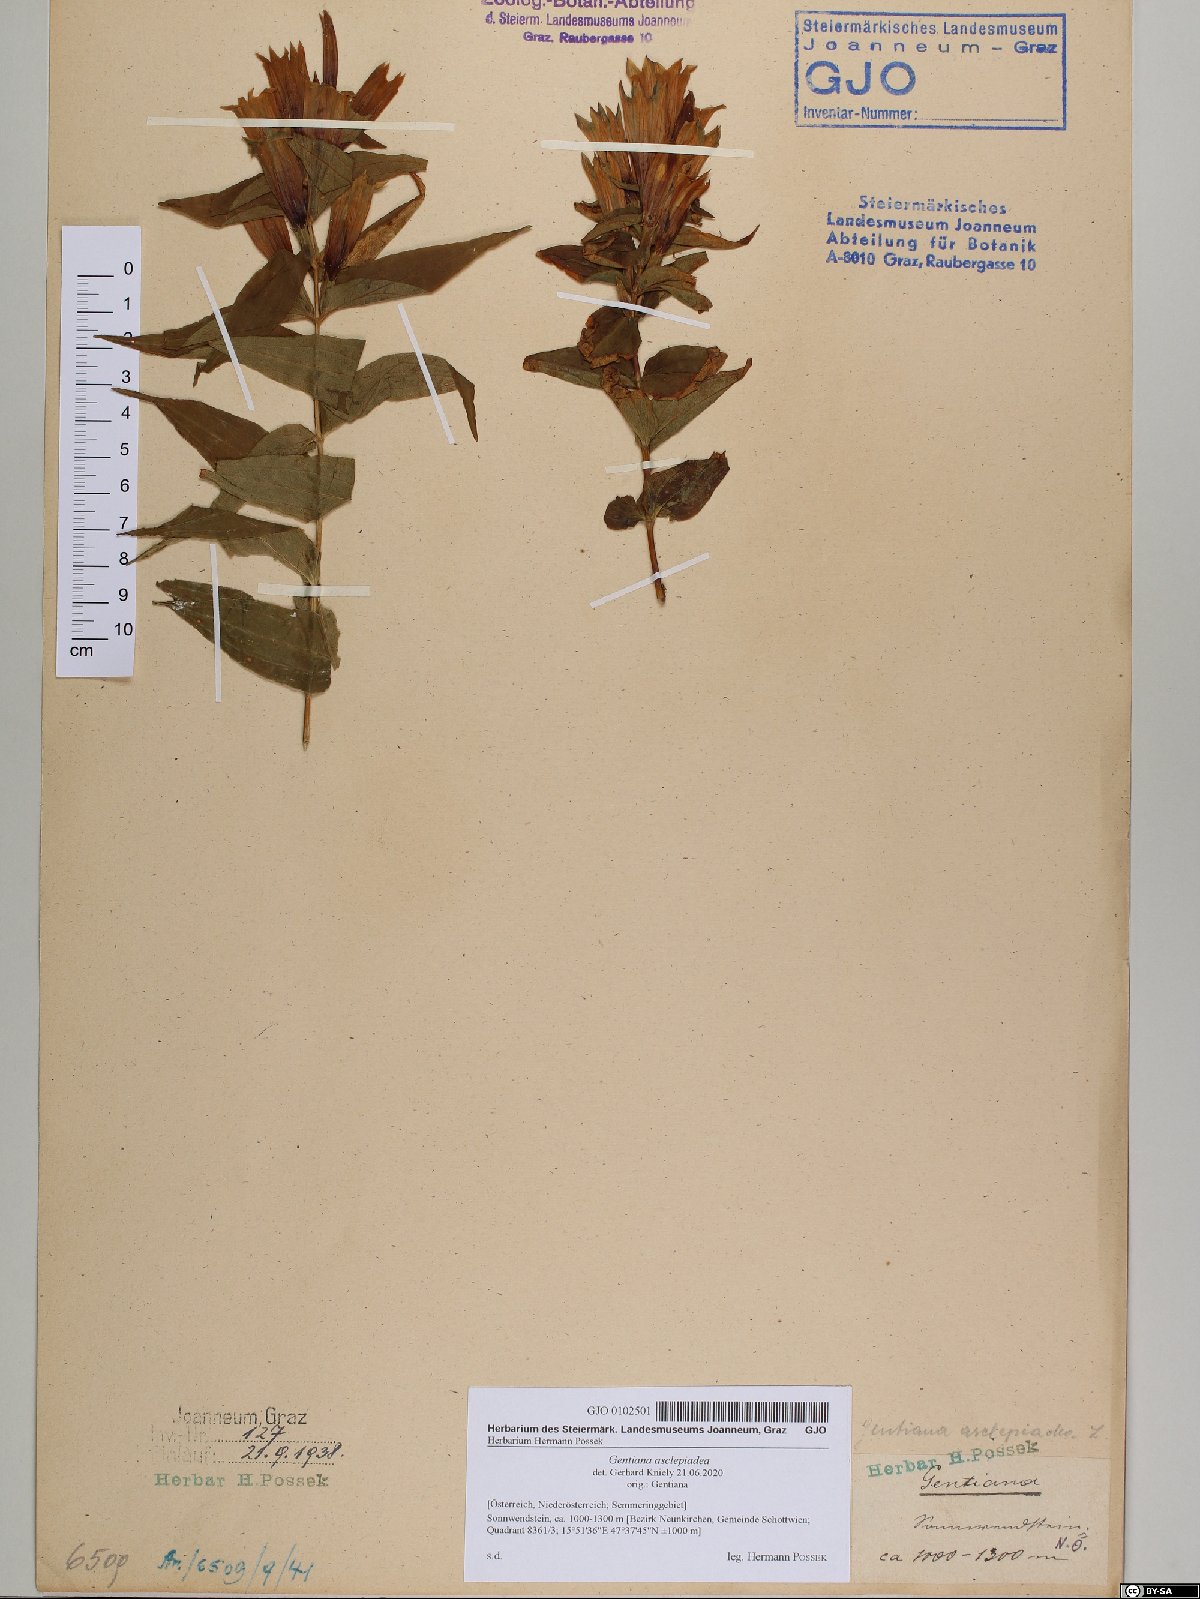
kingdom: Plantae
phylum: Tracheophyta
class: Magnoliopsida
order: Gentianales
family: Gentianaceae
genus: Gentiana
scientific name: Gentiana asclepiadea
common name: Willow gentian
